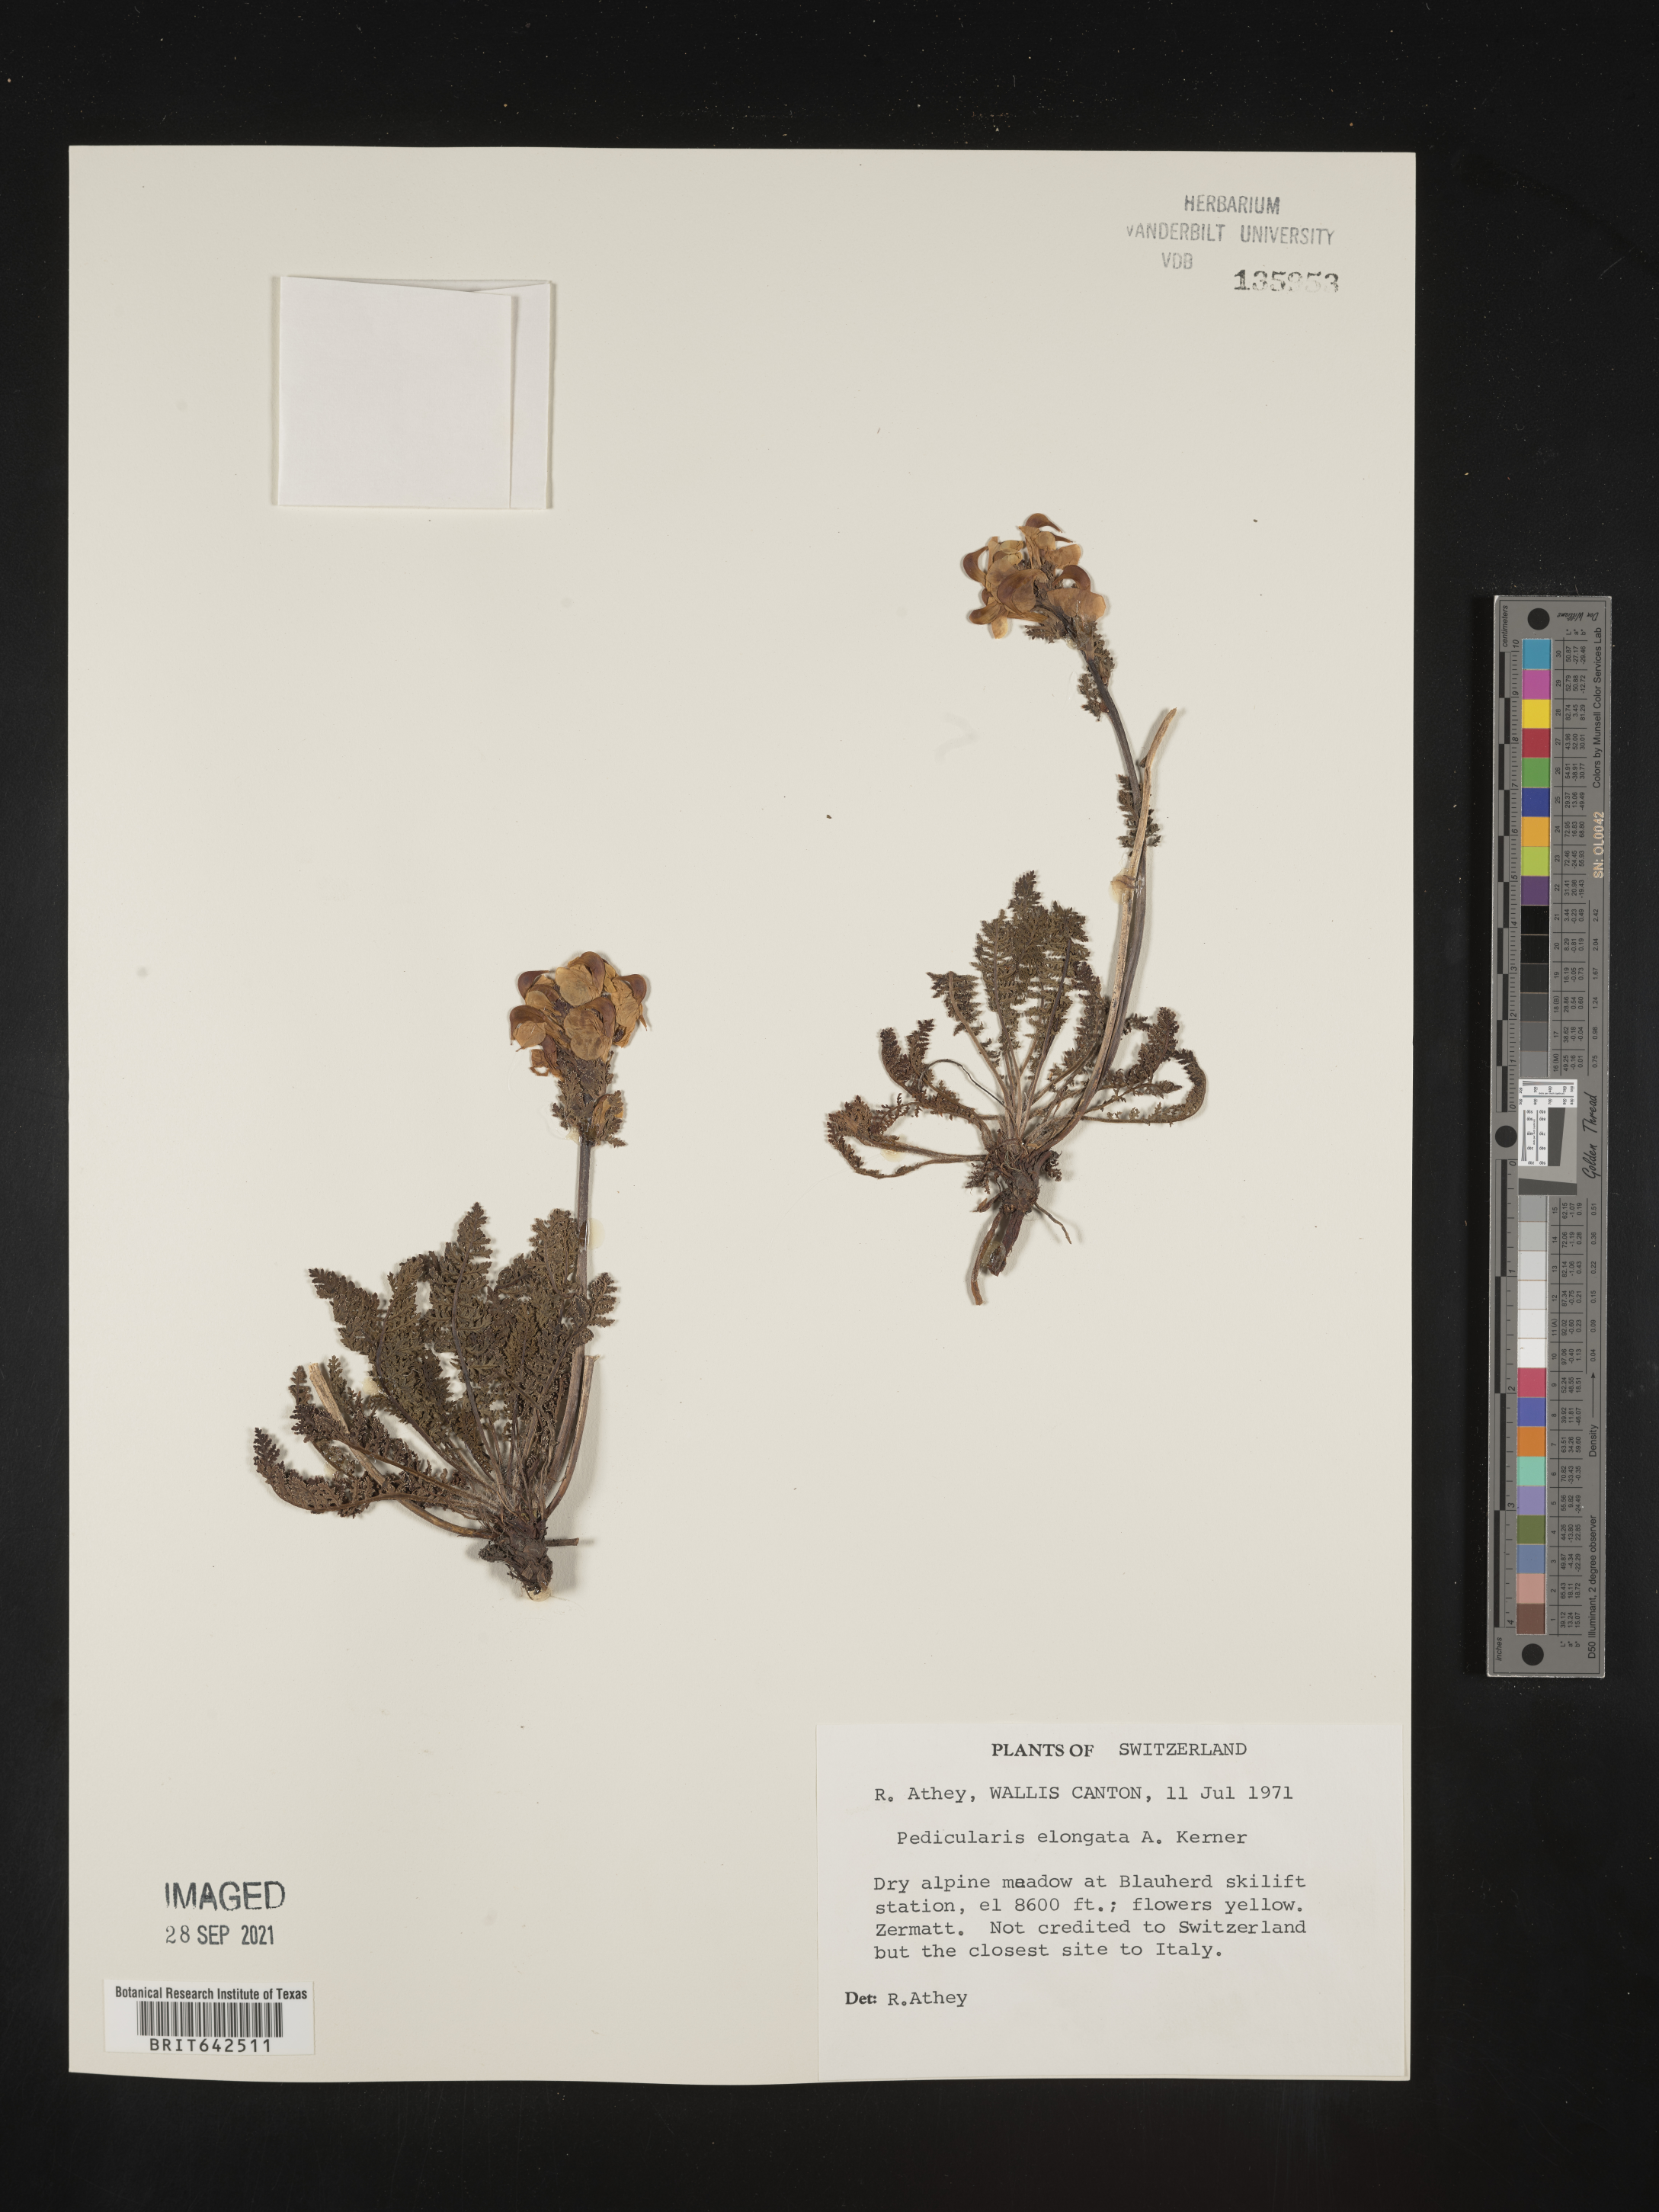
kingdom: Plantae
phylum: Tracheophyta
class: Magnoliopsida
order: Lamiales
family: Orobanchaceae
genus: Pedicularis
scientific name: Pedicularis
